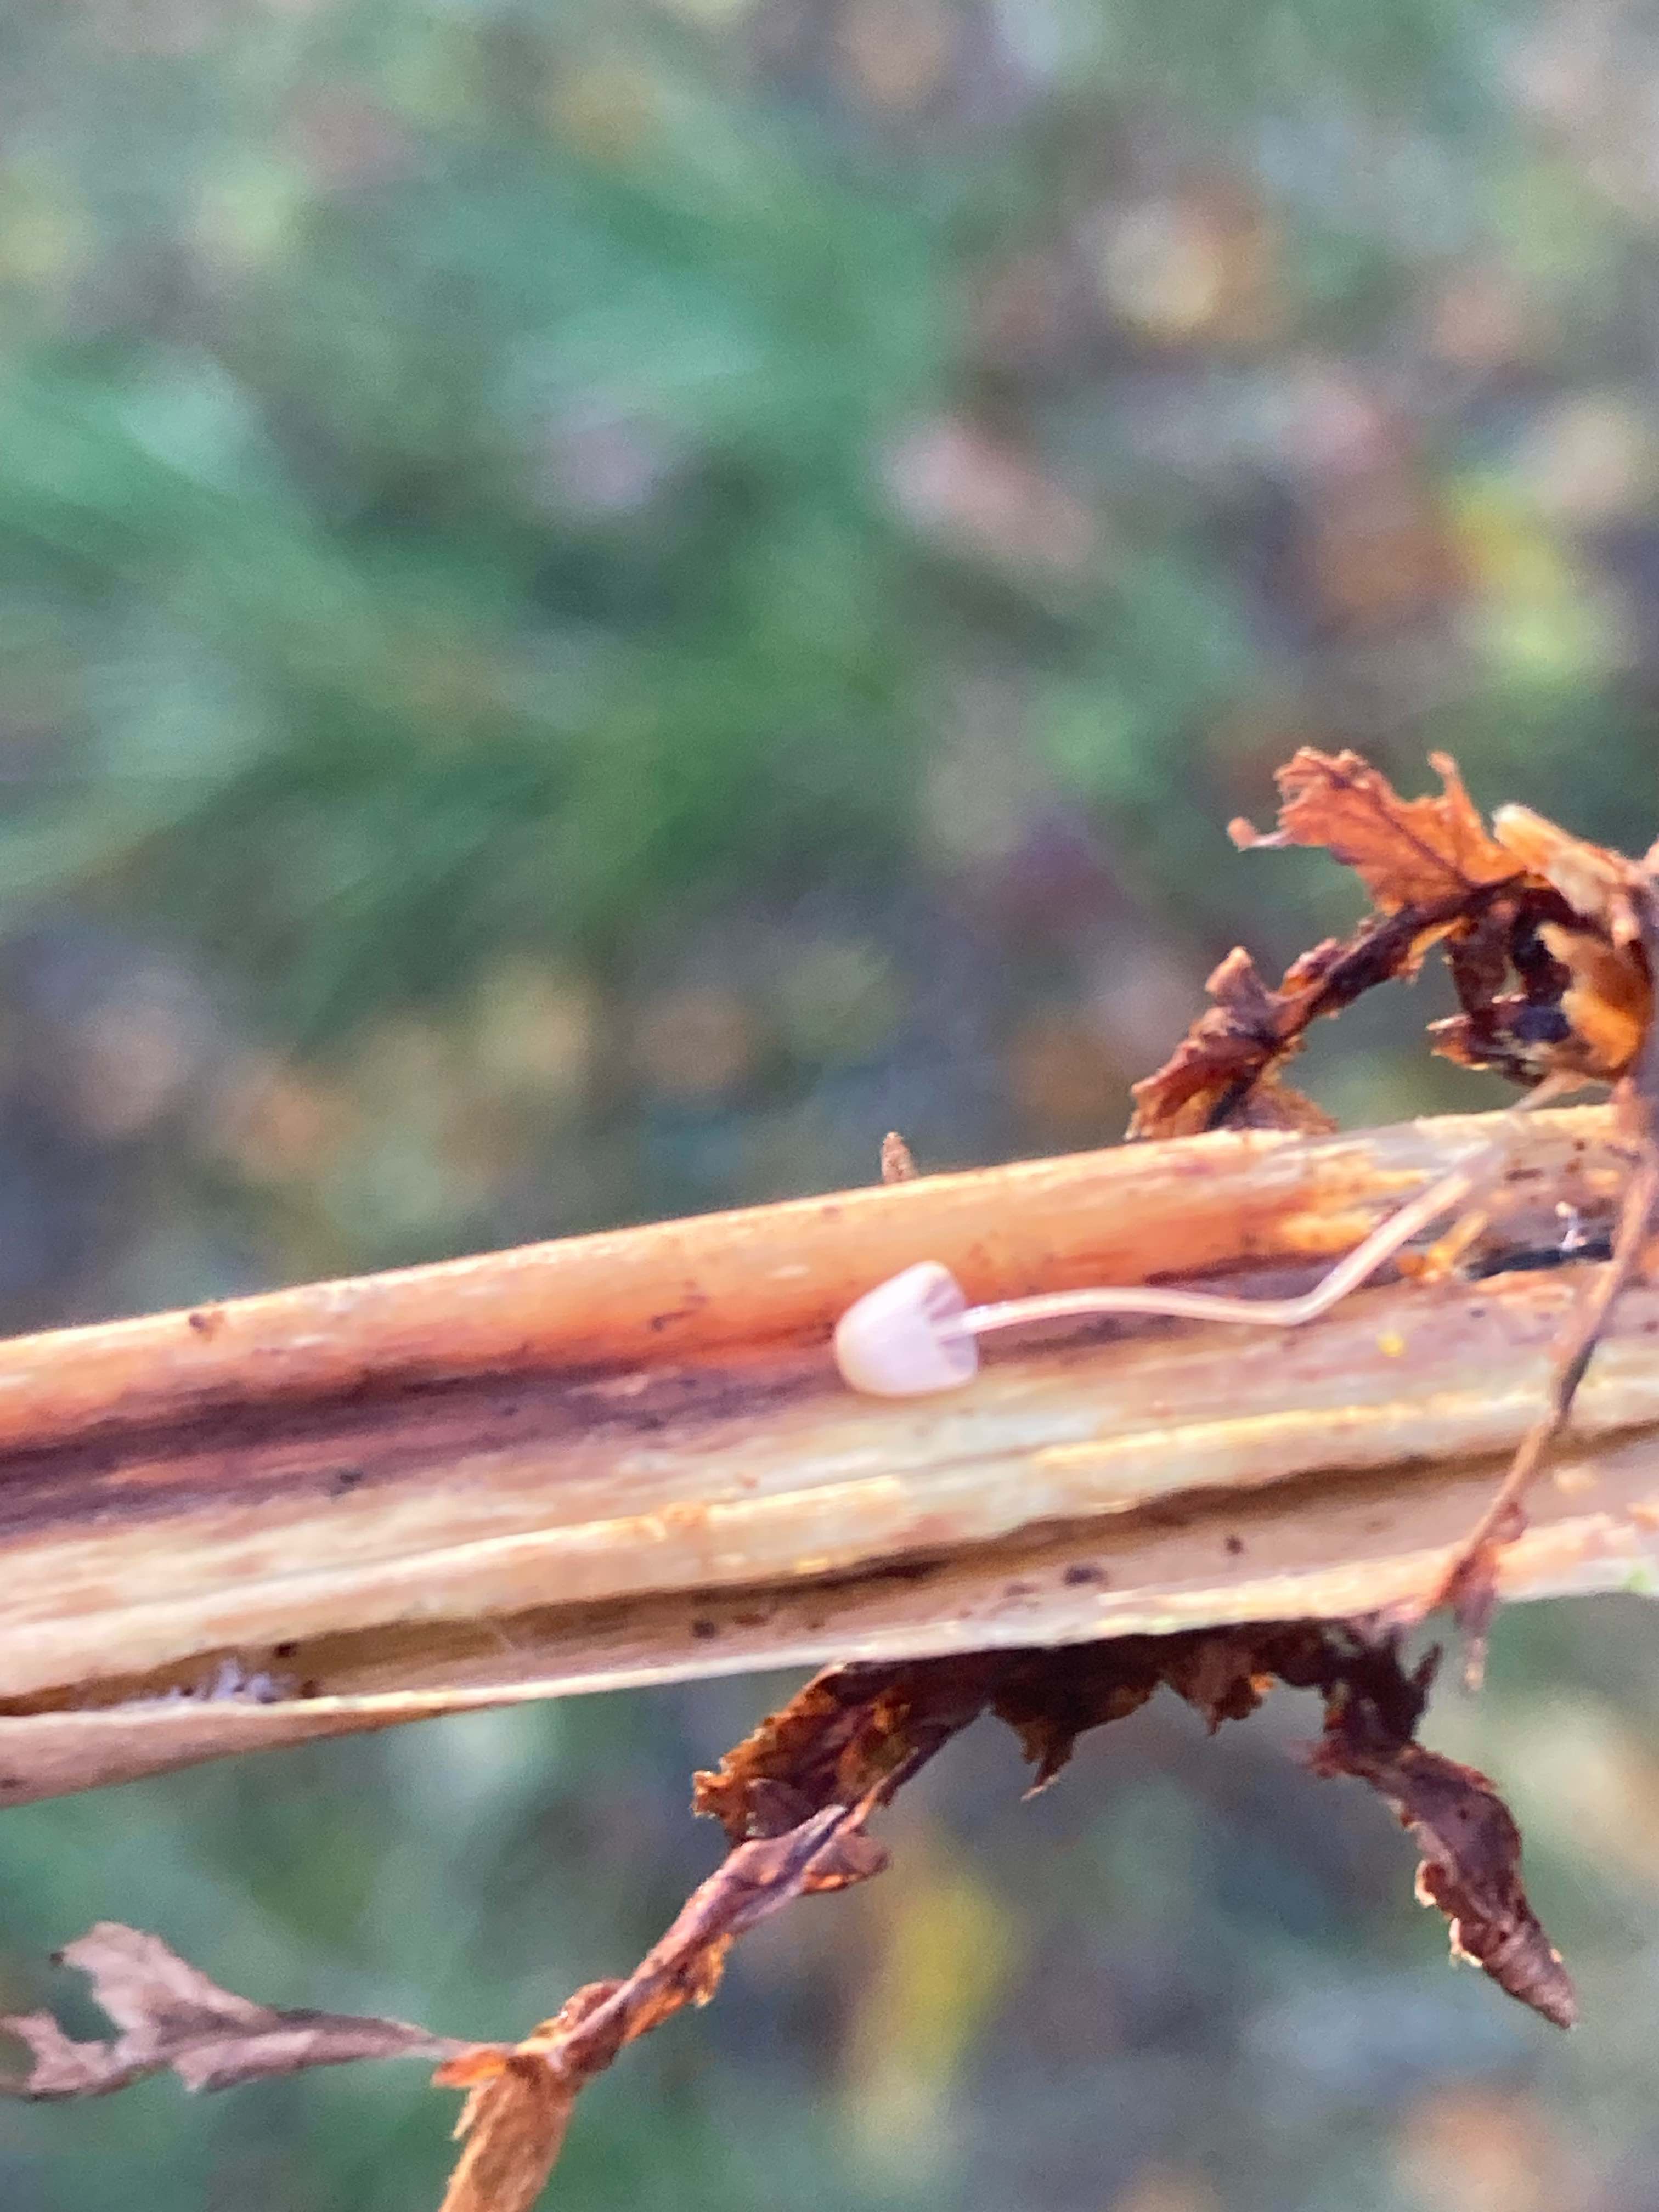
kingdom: Fungi
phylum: Basidiomycota
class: Agaricomycetes
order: Agaricales
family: Mycenaceae
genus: Mycena
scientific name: Mycena pterigena
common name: bregne-huesvamp
